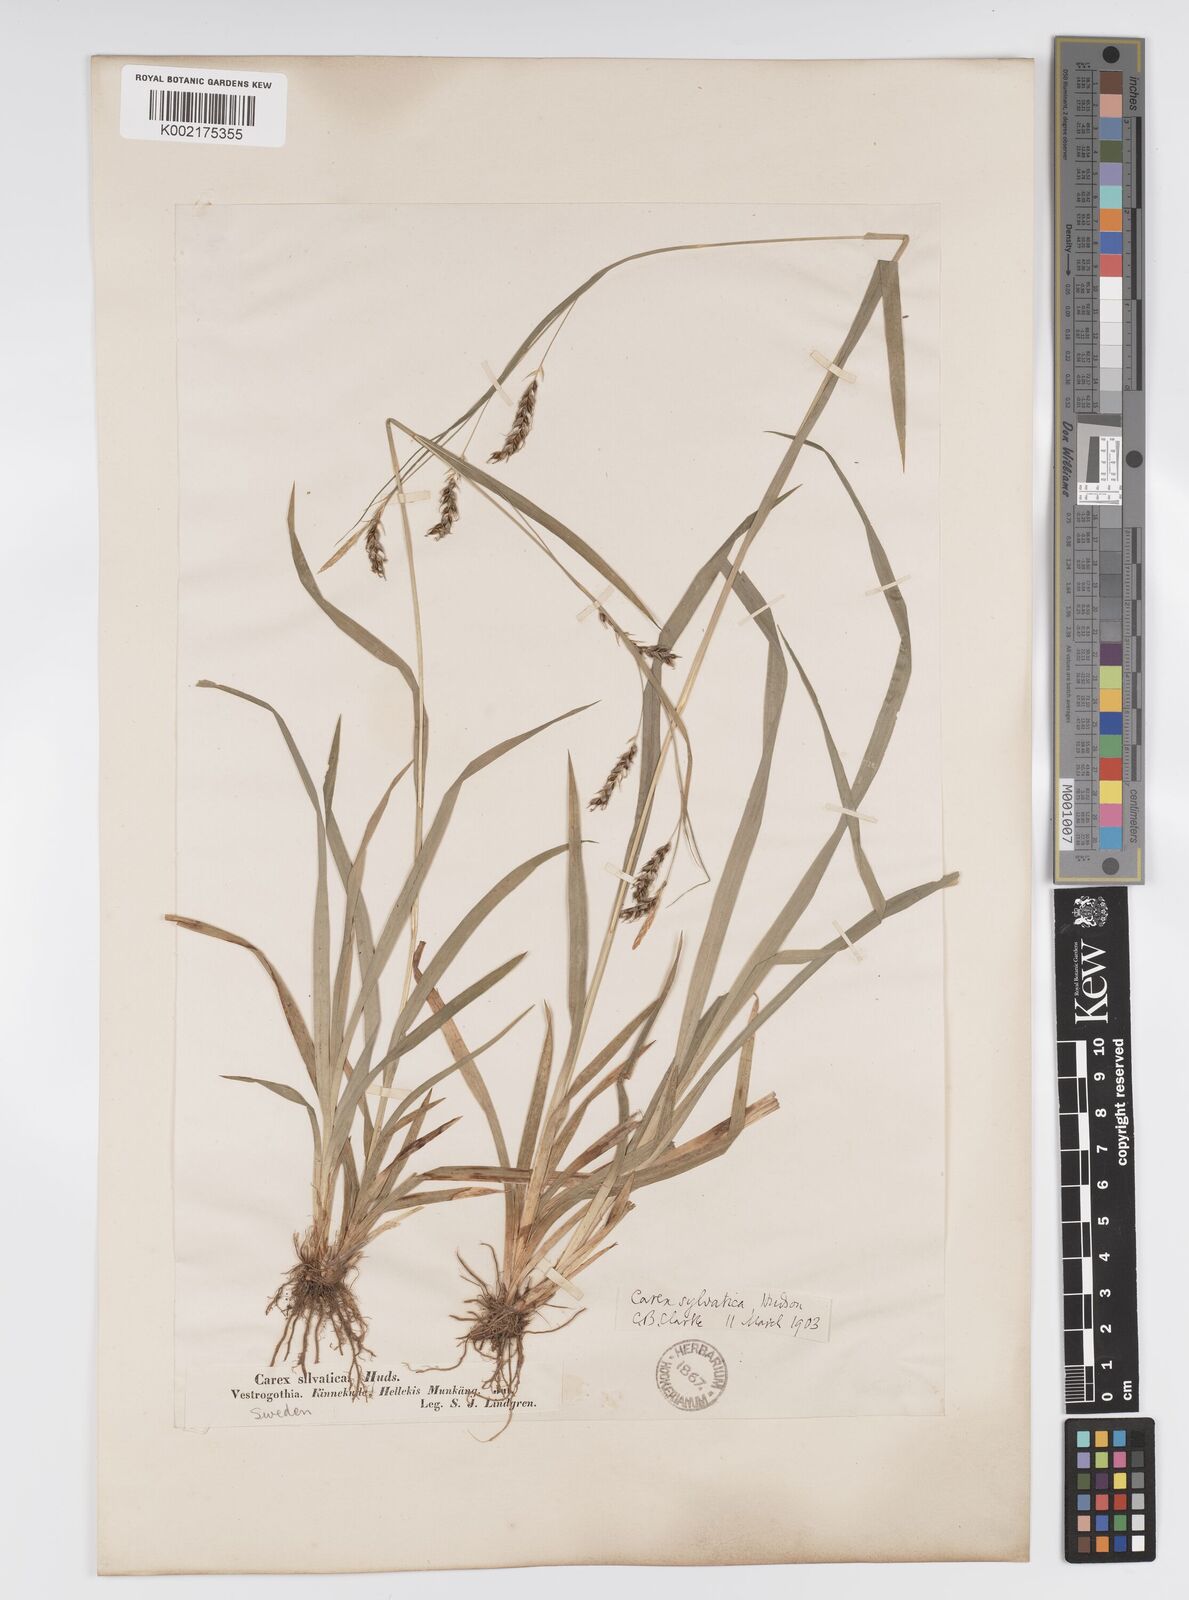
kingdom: Plantae
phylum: Tracheophyta
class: Liliopsida
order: Poales
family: Cyperaceae
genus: Carex
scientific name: Carex sylvatica
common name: Wood-sedge
